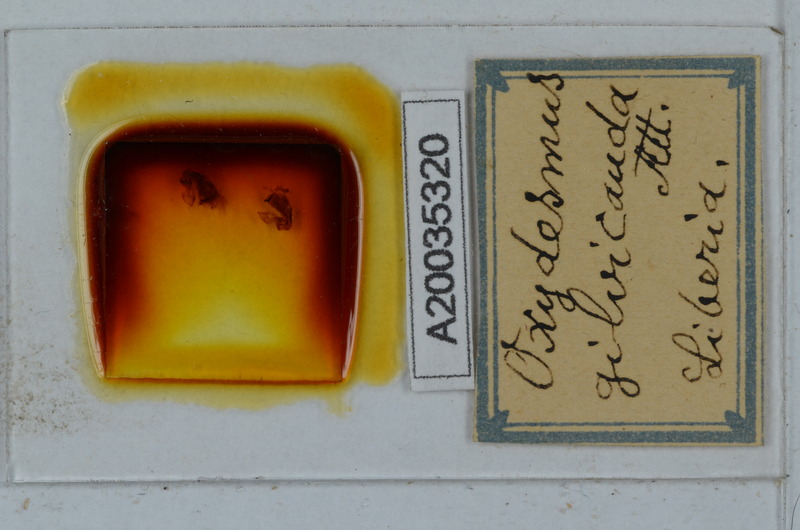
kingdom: Animalia
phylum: Arthropoda
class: Diplopoda
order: Polydesmida
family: Oxydesmidae
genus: Corominus
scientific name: Corominus gnorimus
